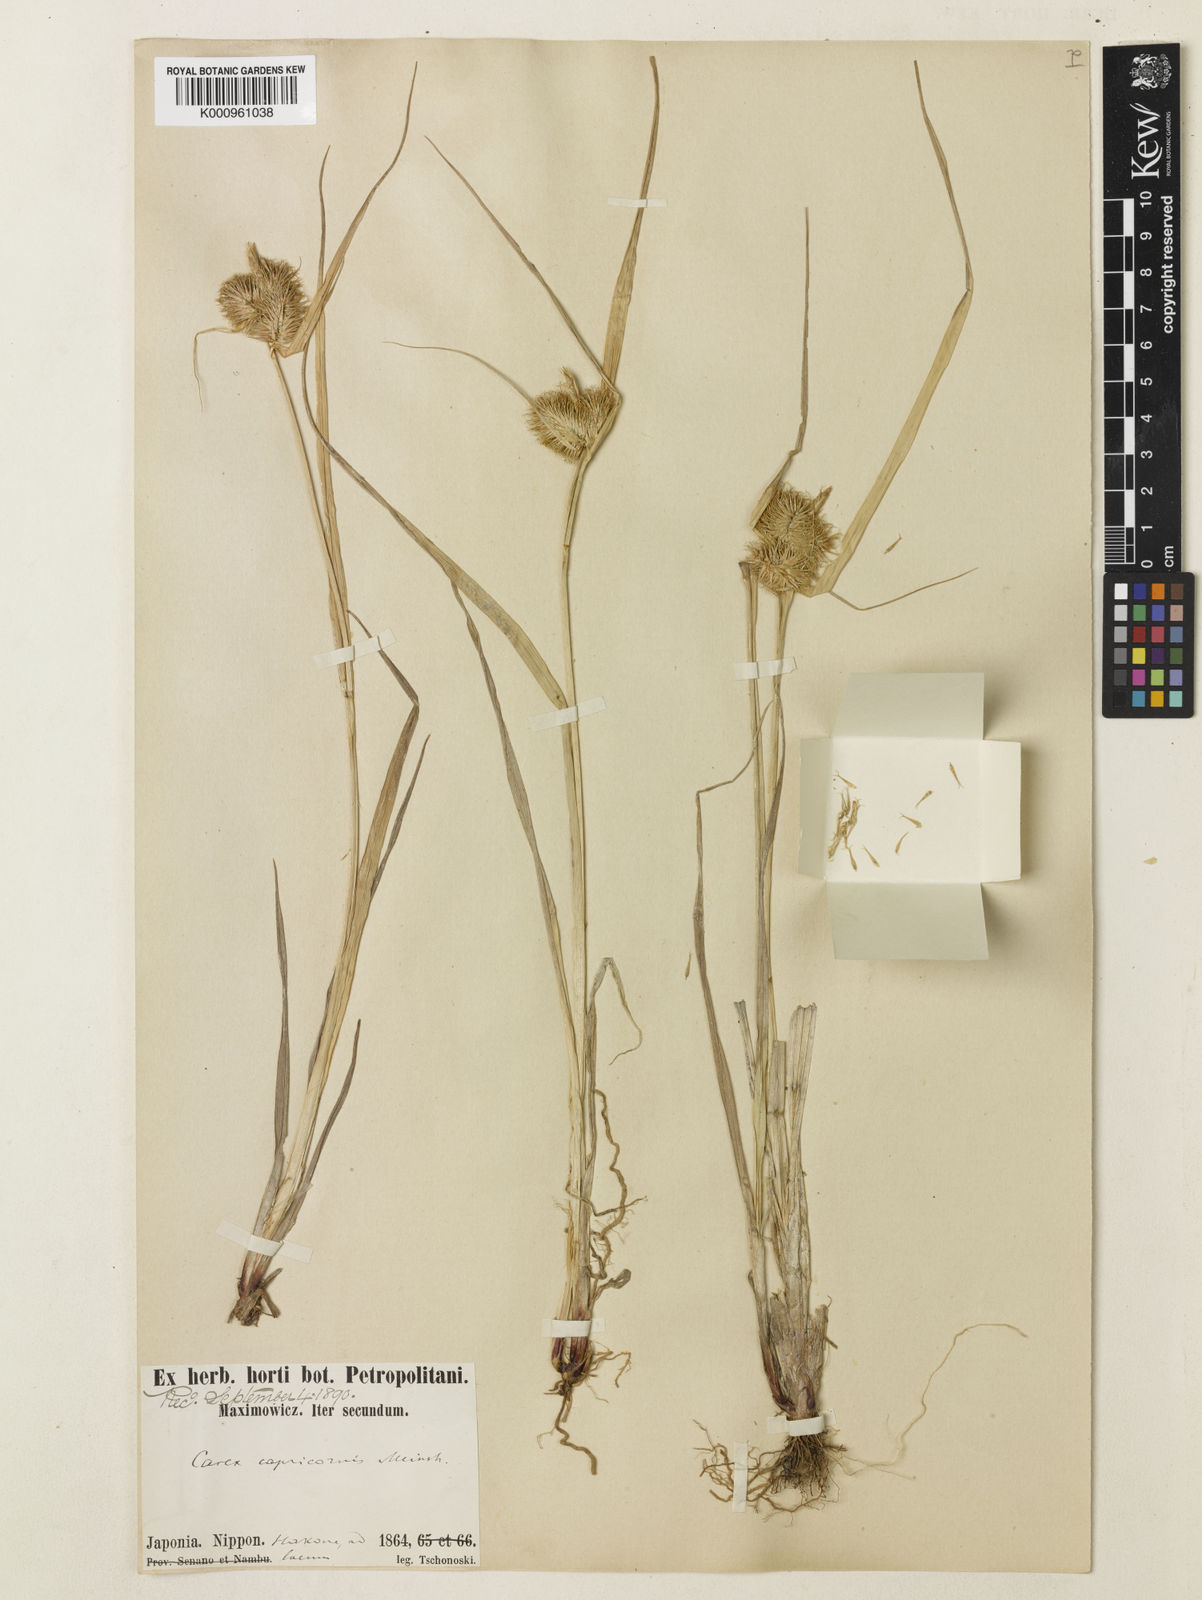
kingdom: Plantae
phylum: Tracheophyta
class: Liliopsida
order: Poales
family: Cyperaceae
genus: Carex
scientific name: Carex capricornis
